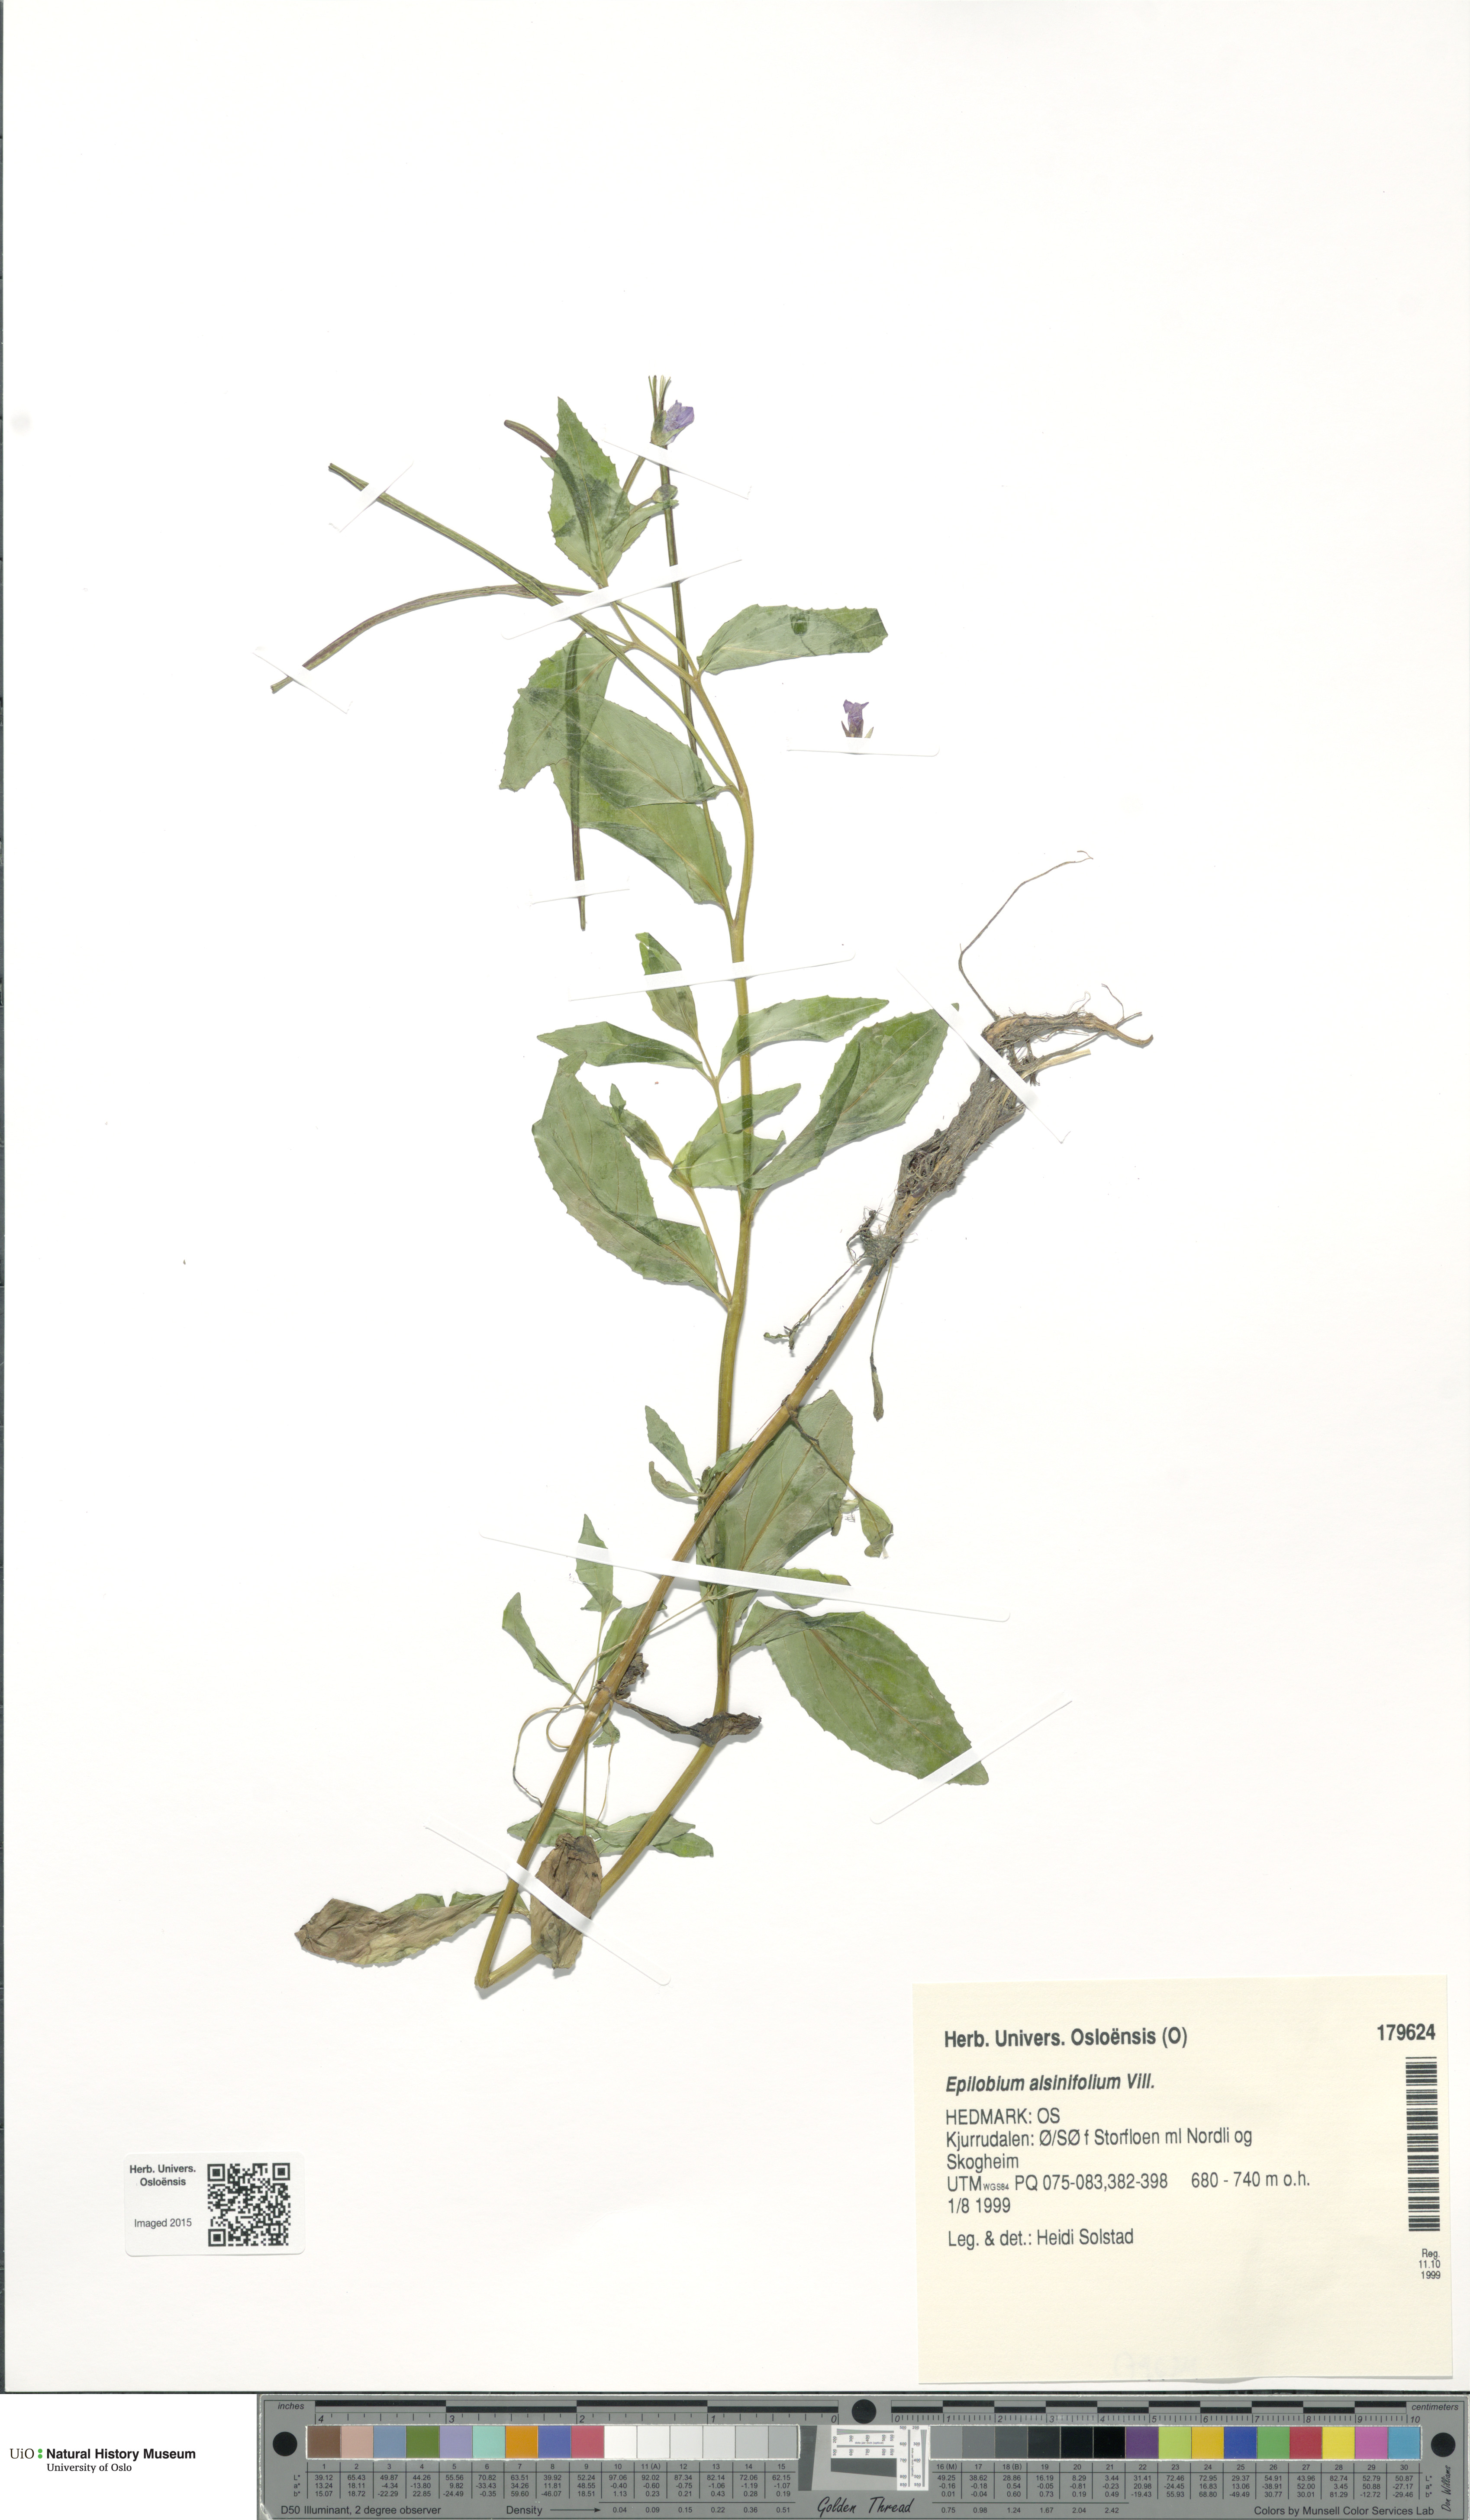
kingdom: Plantae
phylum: Tracheophyta
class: Magnoliopsida
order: Myrtales
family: Onagraceae
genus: Epilobium
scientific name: Epilobium alsinifolium
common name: Chickweed willowherb
